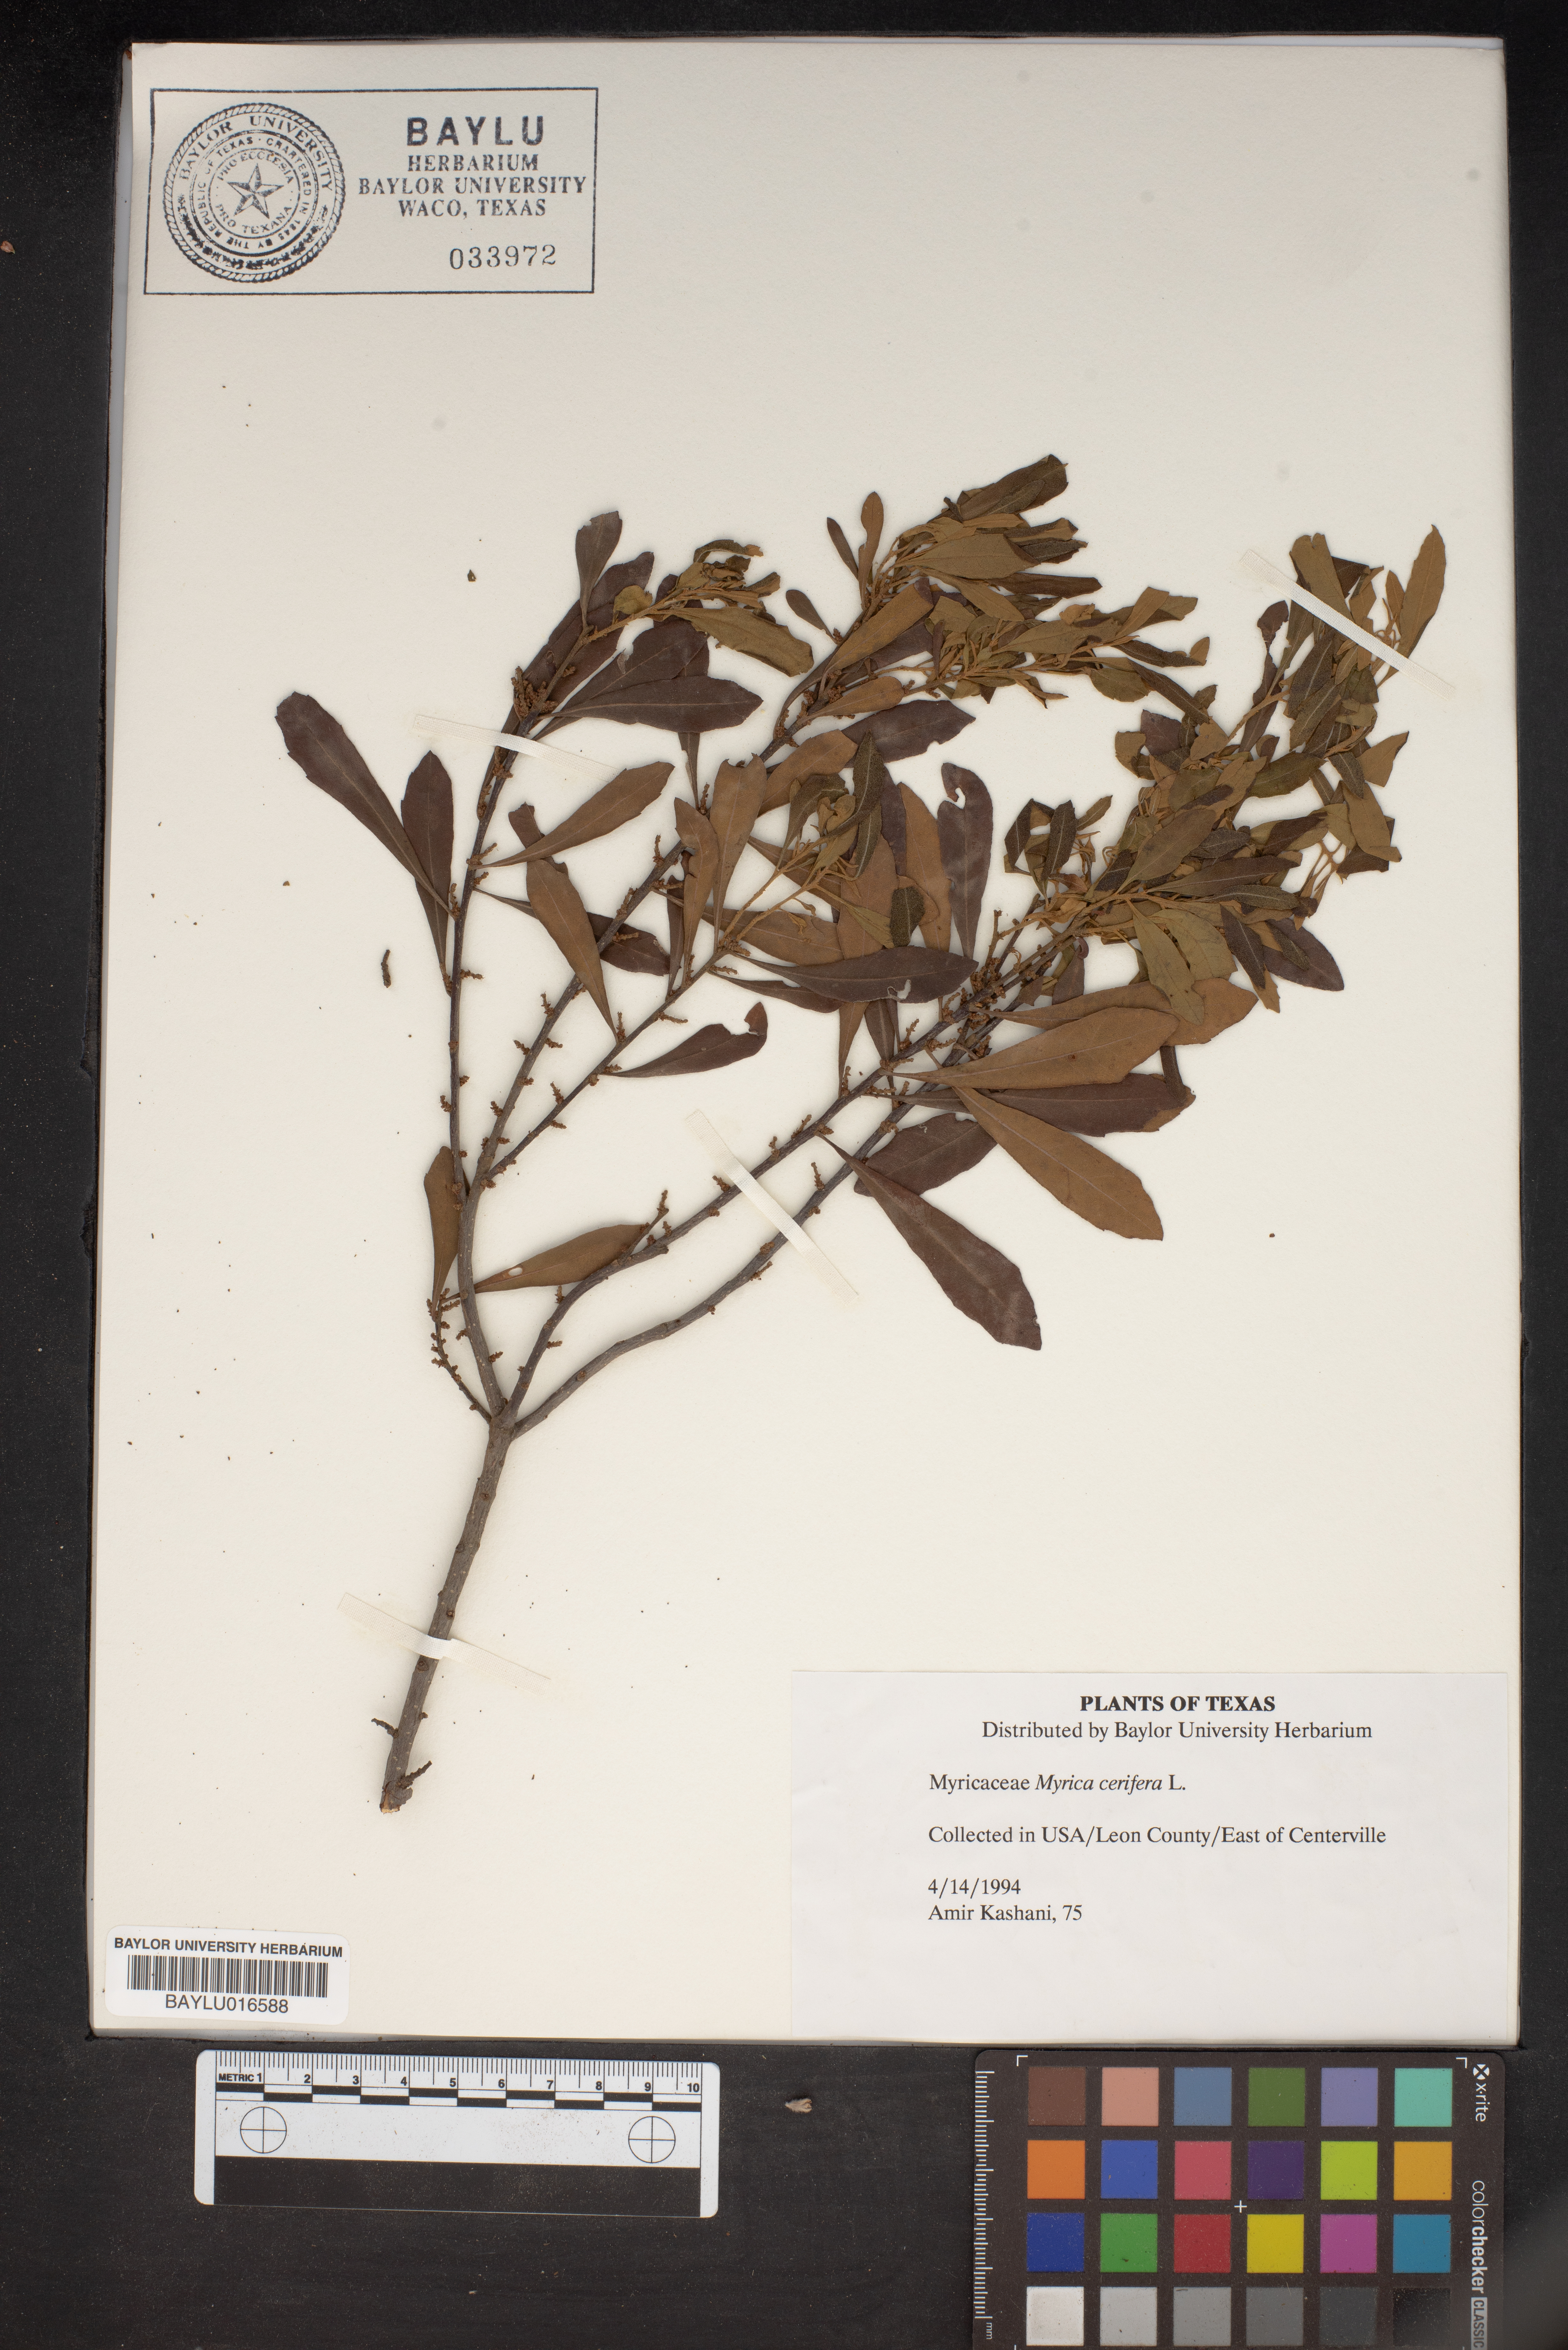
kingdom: Plantae
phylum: Tracheophyta
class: Magnoliopsida
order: Fagales
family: Myricaceae
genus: Morella
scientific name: Morella cerifera
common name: Wax myrtle
